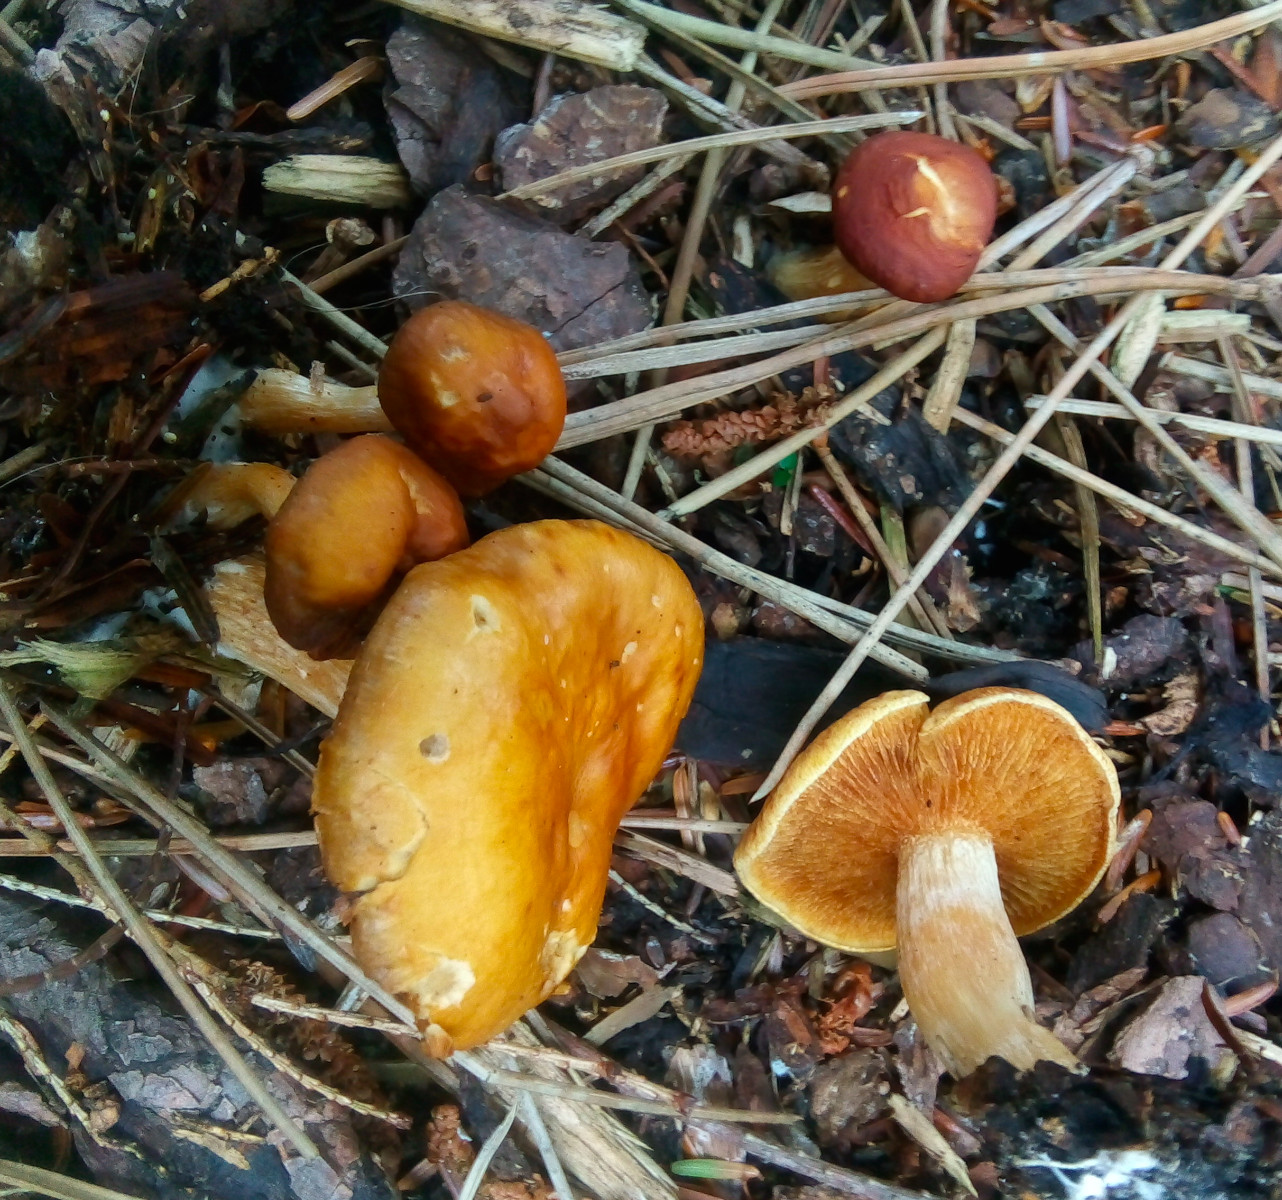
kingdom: Fungi
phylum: Basidiomycota
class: Agaricomycetes
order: Agaricales
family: Hymenogastraceae
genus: Gymnopilus
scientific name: Gymnopilus penetrans
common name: plettet flammehat
